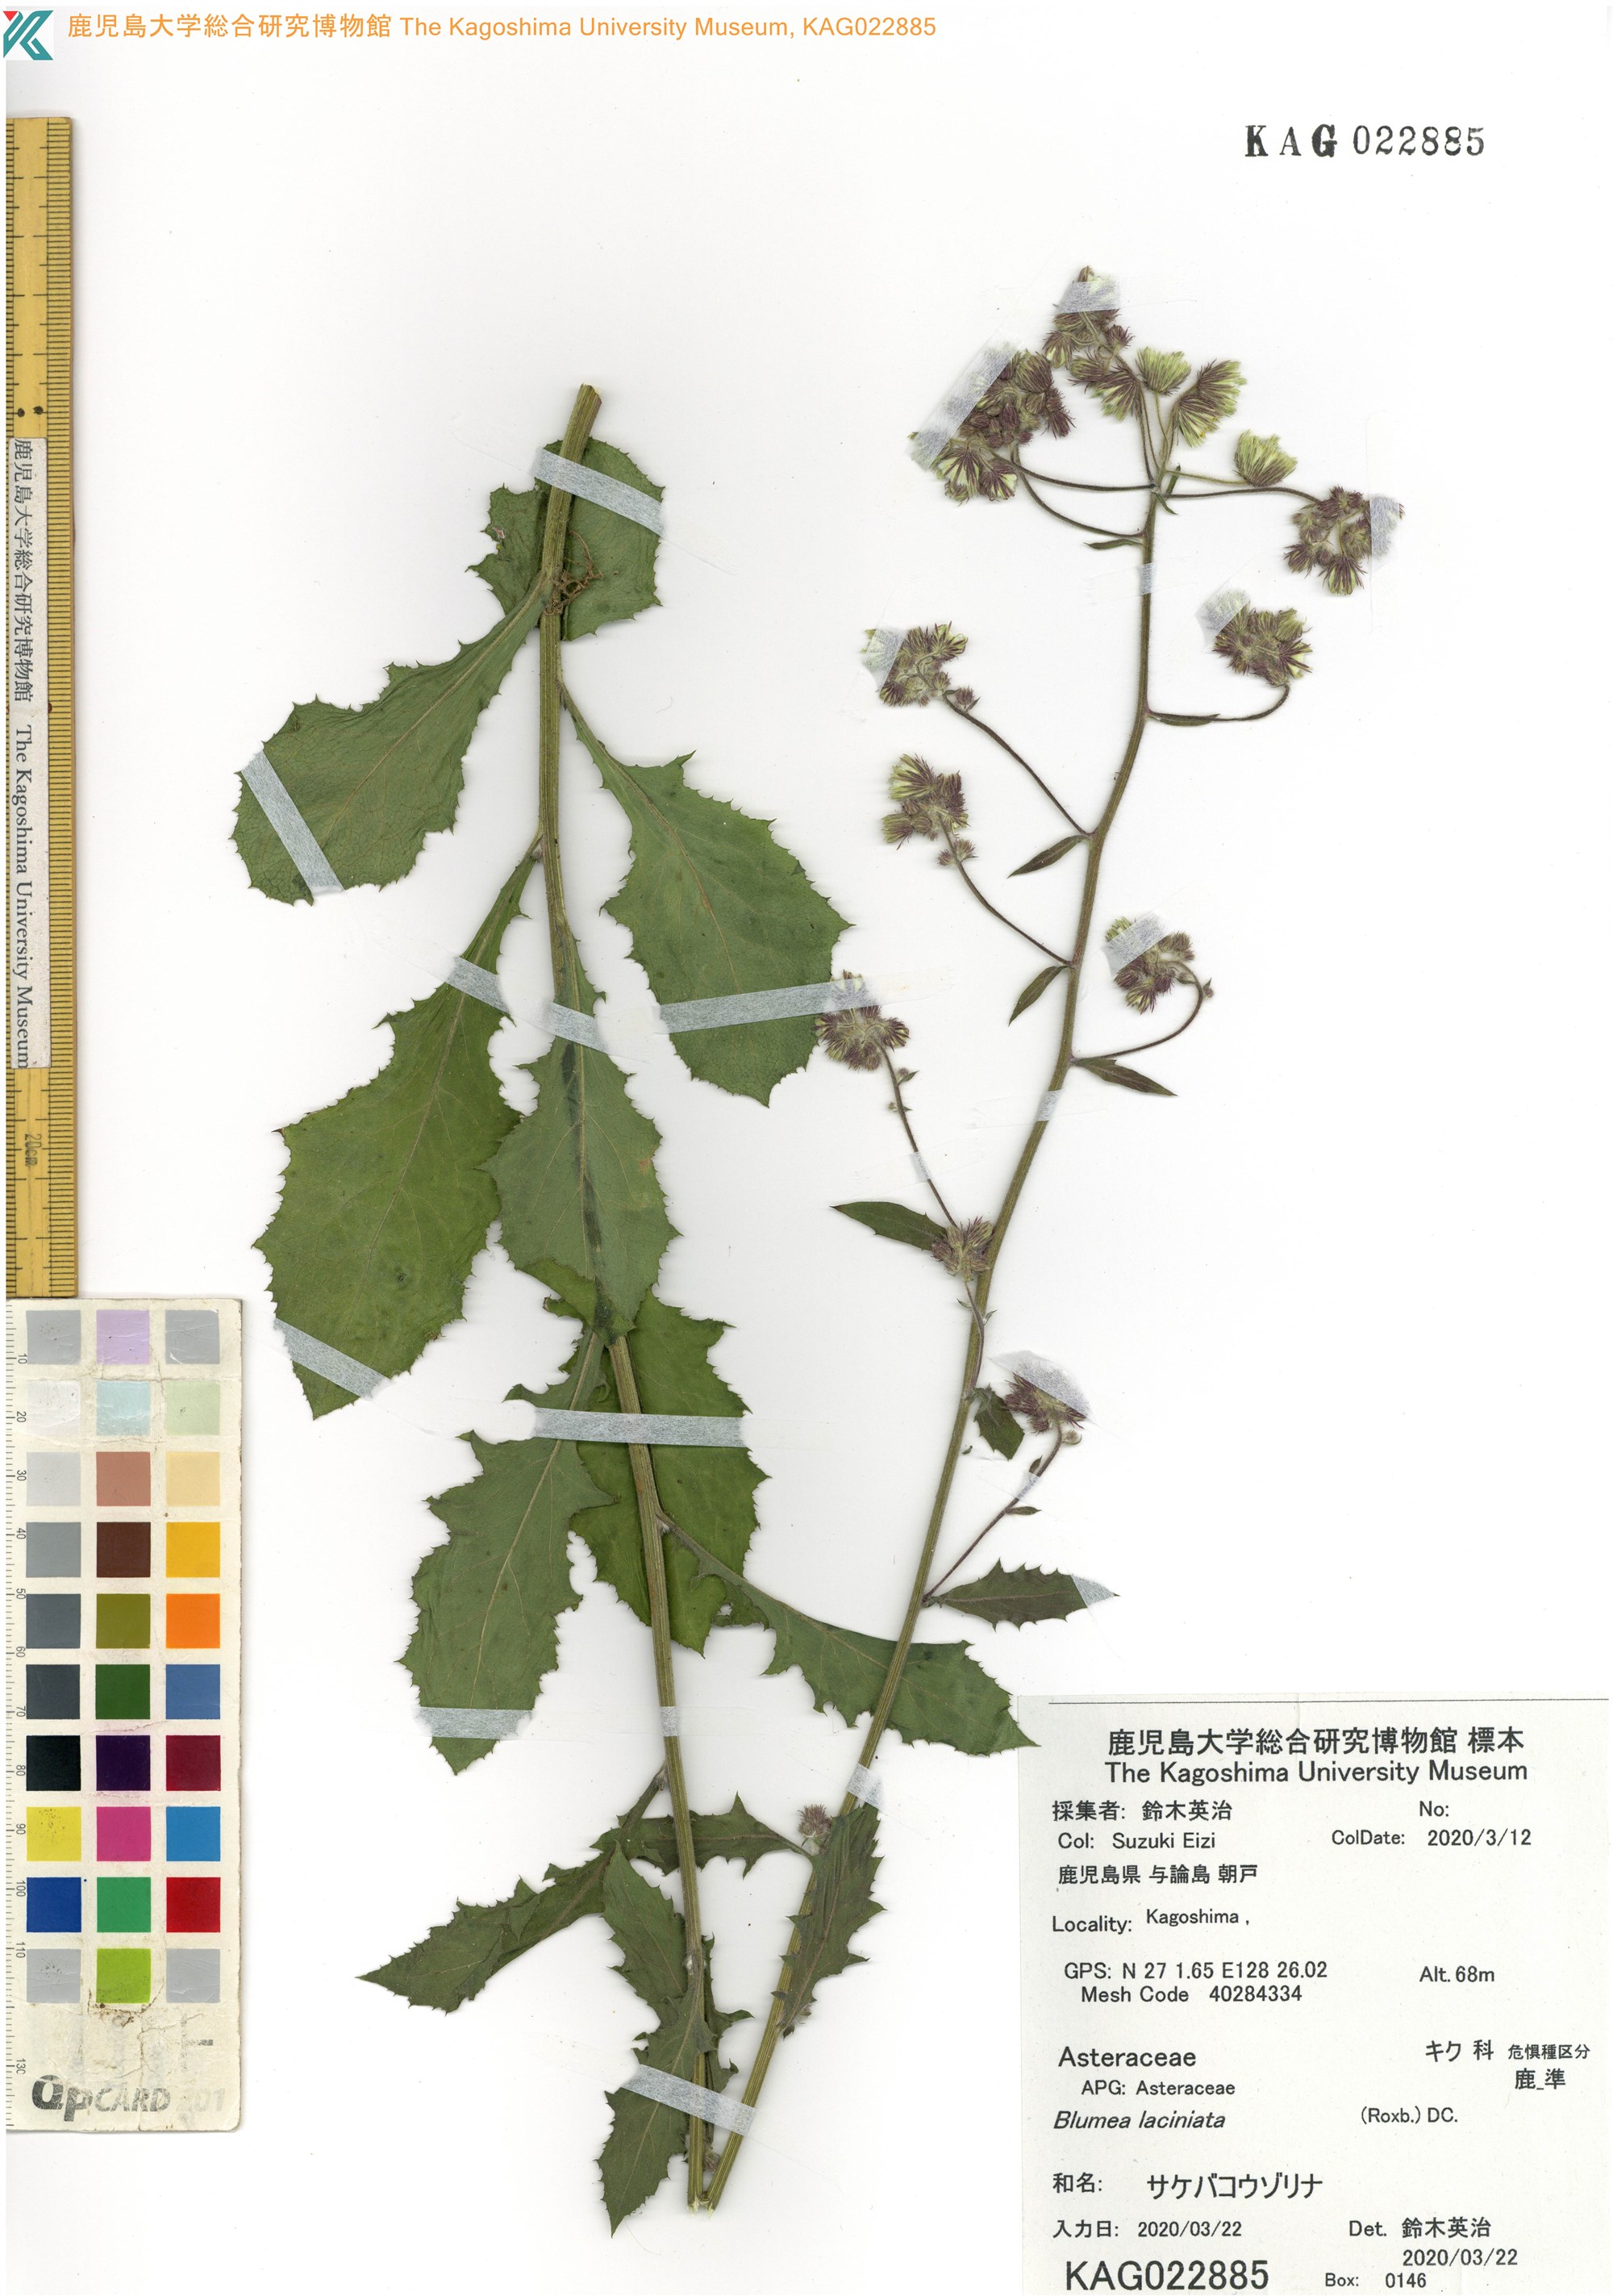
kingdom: Plantae
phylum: Tracheophyta
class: Magnoliopsida
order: Asterales
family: Asteraceae
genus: Blumea
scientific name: Blumea sinuata
